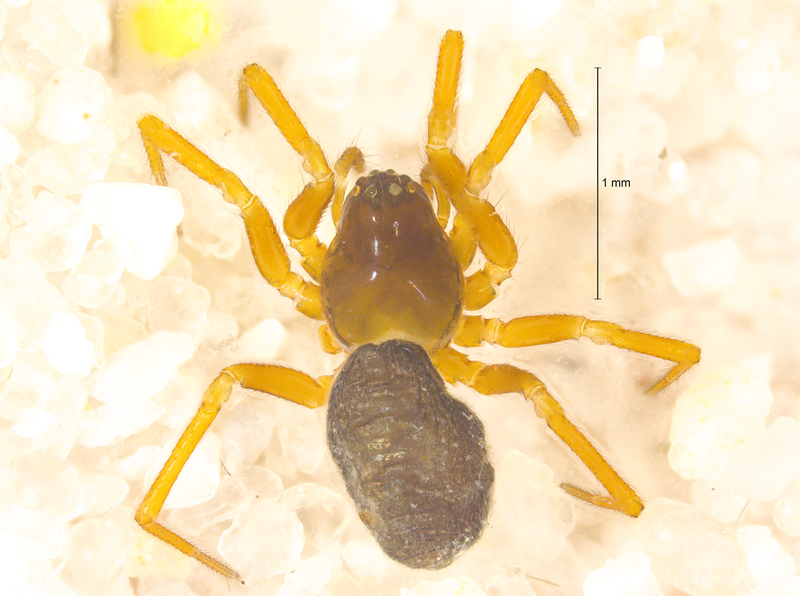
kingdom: Animalia
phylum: Arthropoda
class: Arachnida
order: Araneae
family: Linyphiidae
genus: Diplocephalus
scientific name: Diplocephalus picinus
